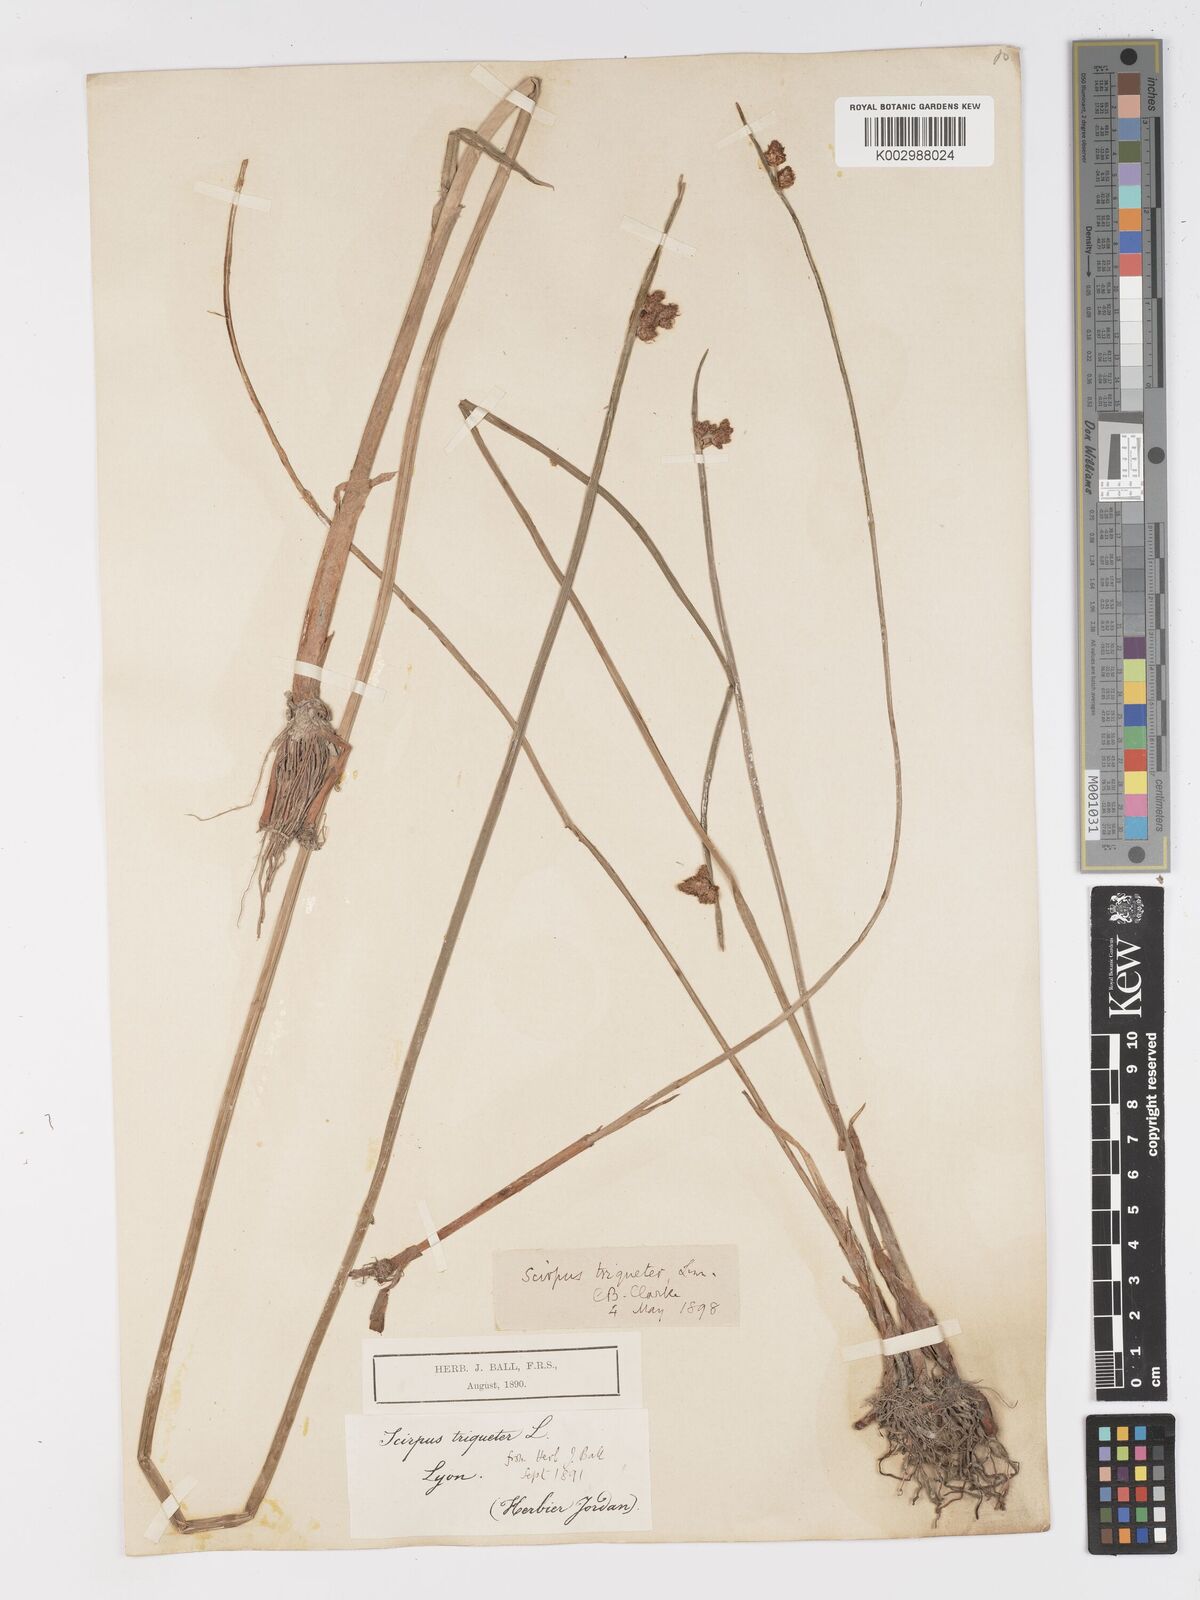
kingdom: Plantae
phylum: Tracheophyta
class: Liliopsida
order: Poales
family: Cyperaceae
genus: Schoenoplectus
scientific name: Schoenoplectus triqueter
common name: Triangular club-rush
